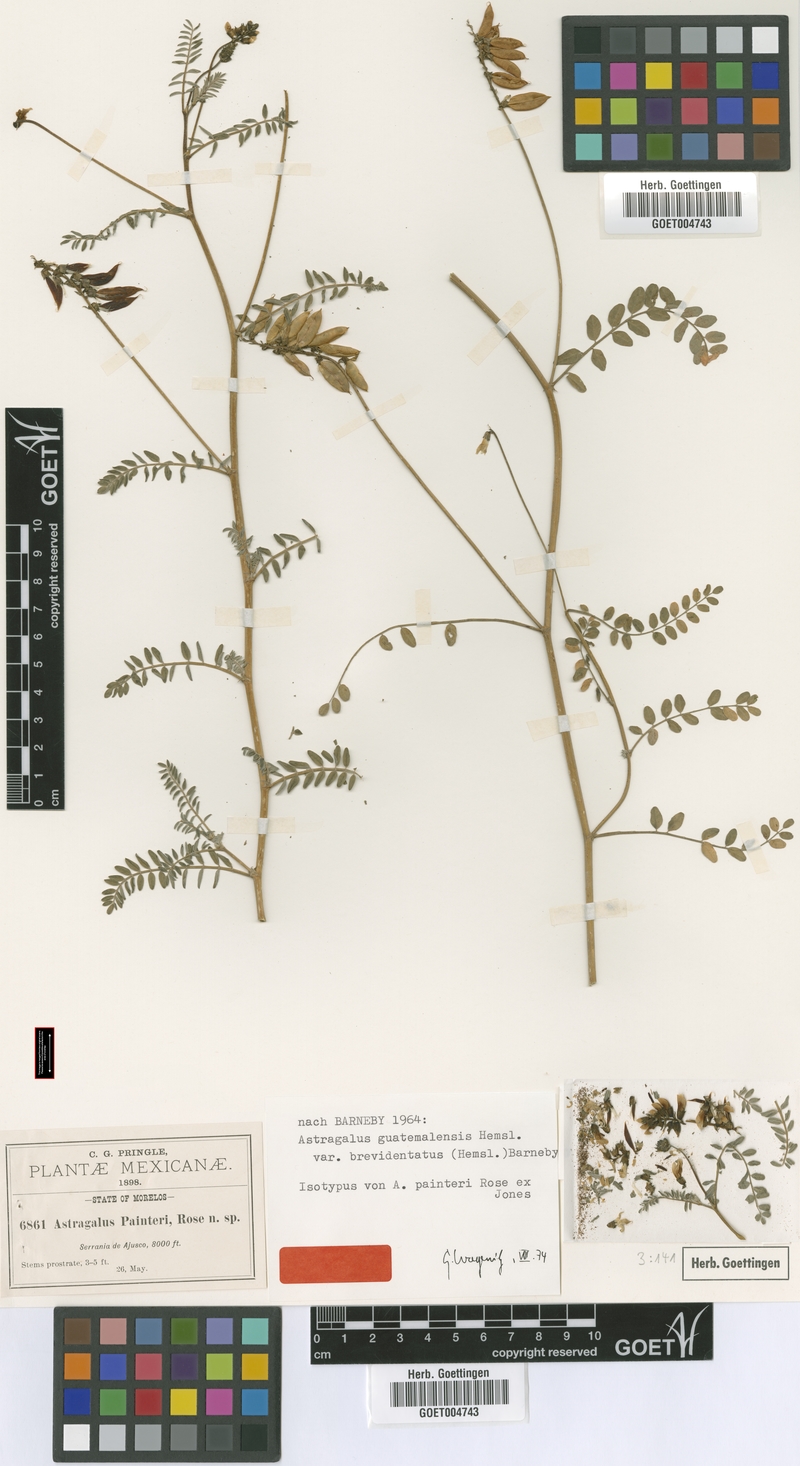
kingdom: Plantae
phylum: Tracheophyta
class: Magnoliopsida
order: Fabales
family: Fabaceae
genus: Astragalus
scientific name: Astragalus guatemalensis
